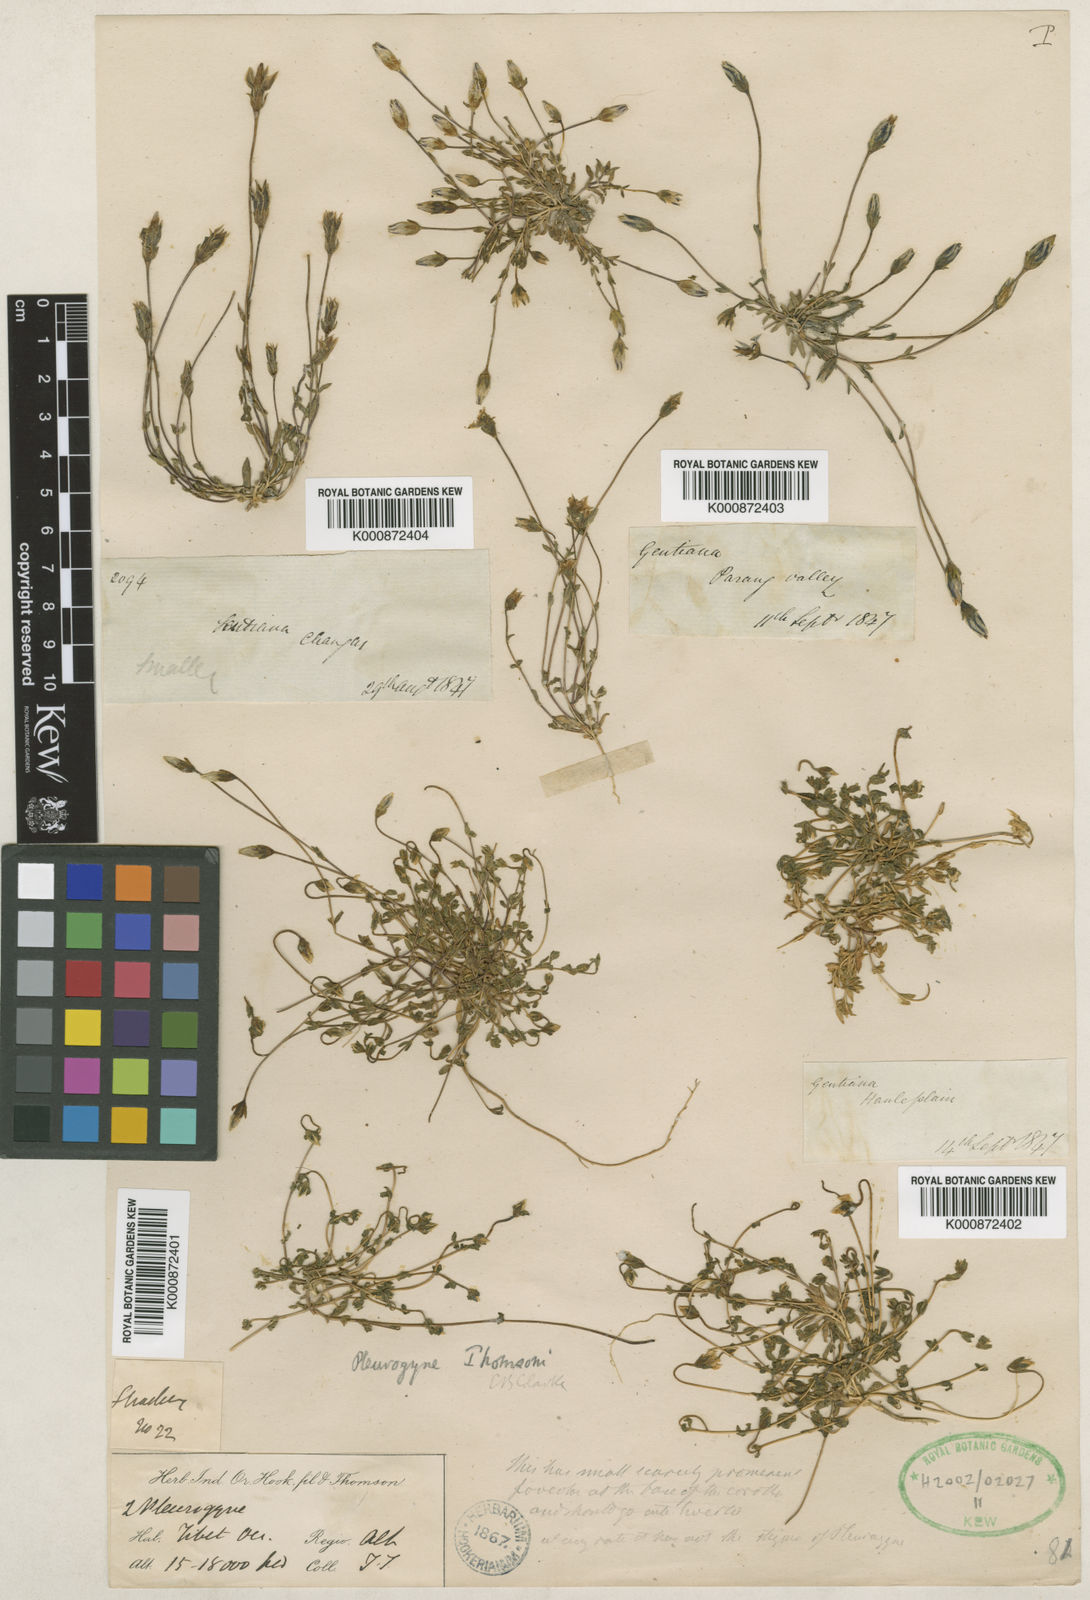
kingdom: Plantae
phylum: Tracheophyta
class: Magnoliopsida
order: Gentianales
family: Gentianaceae
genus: Lomatogonium
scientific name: Lomatogonium brachyantherum
